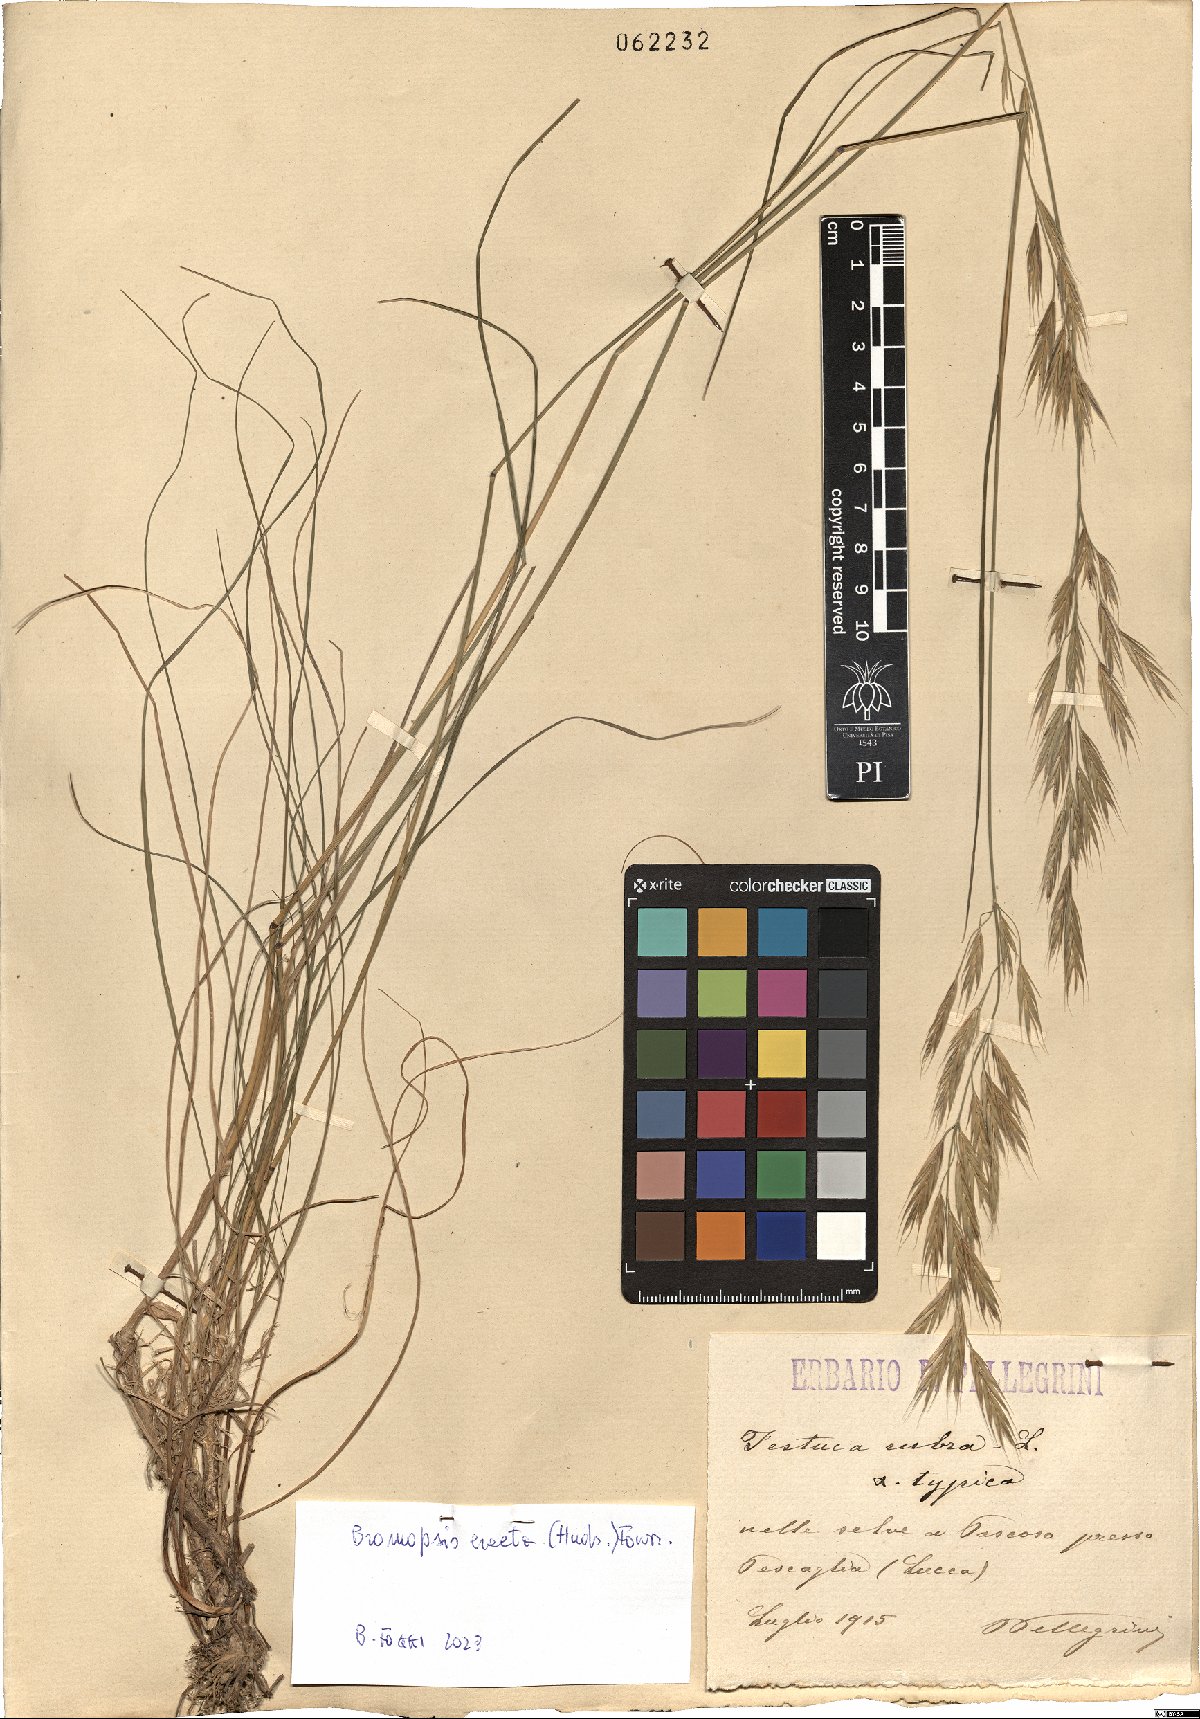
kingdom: Plantae
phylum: Tracheophyta
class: Liliopsida
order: Poales
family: Poaceae
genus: Bromus
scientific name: Bromus erectus
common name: Erect brome
